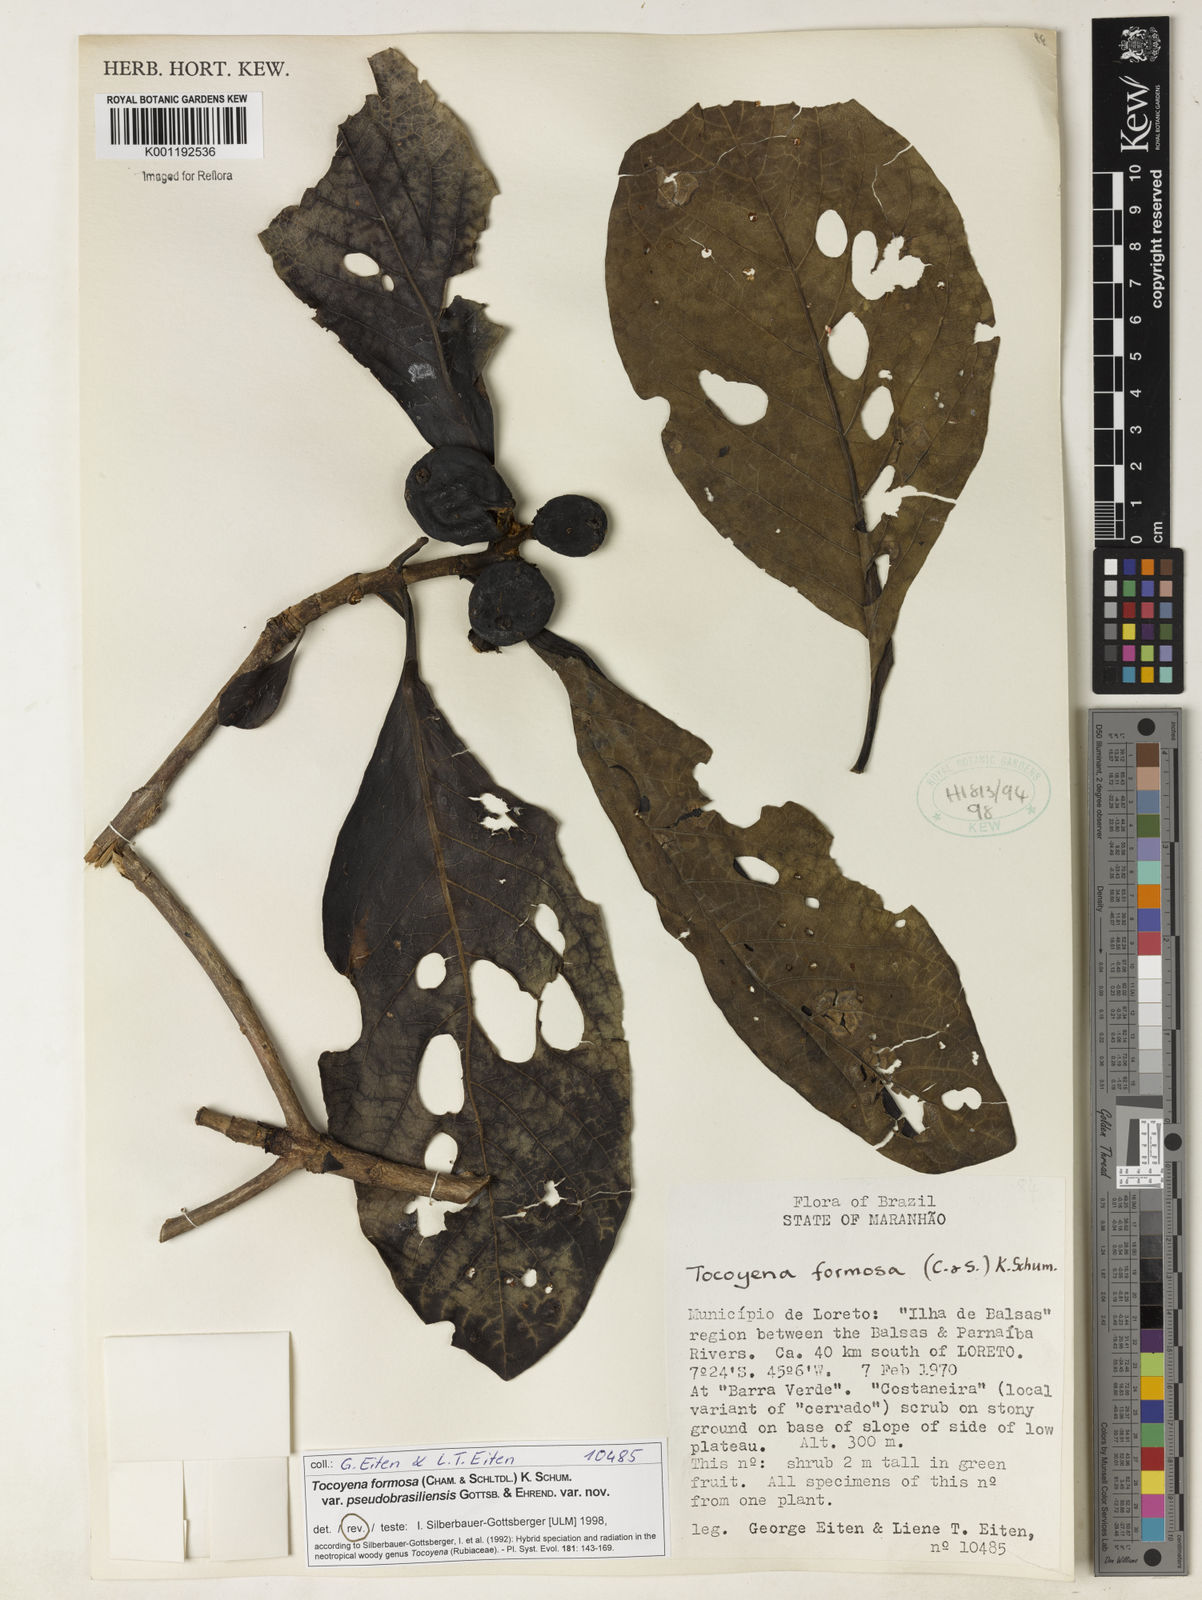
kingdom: Plantae
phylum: Tracheophyta
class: Magnoliopsida
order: Gentianales
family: Rubiaceae
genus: Tocoyena
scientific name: Tocoyena formosa
